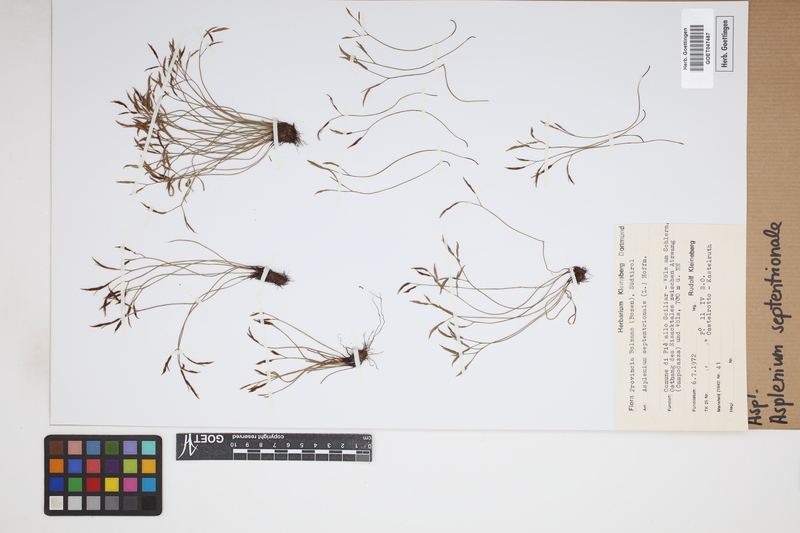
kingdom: Plantae
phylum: Tracheophyta
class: Polypodiopsida
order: Polypodiales
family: Aspleniaceae
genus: Asplenium
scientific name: Asplenium septentrionale
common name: Forked spleenwort
